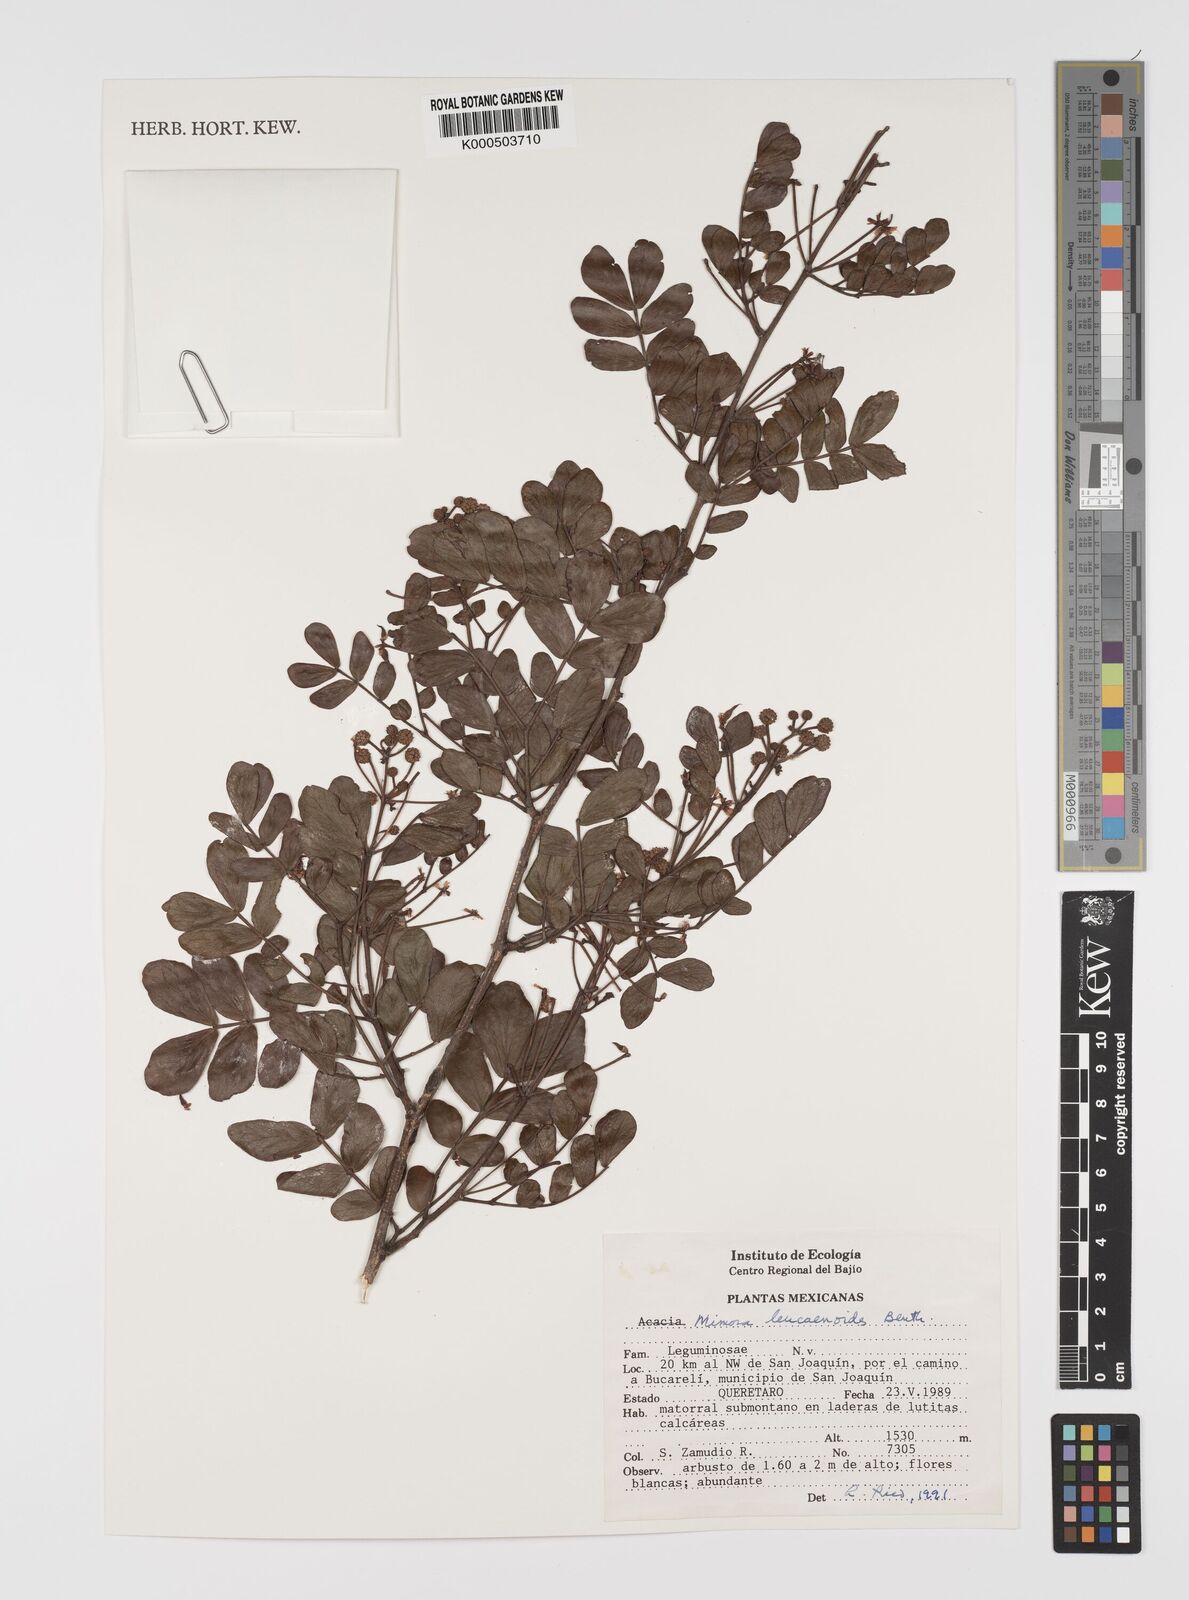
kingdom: Plantae
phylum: Tracheophyta
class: Magnoliopsida
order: Fabales
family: Fabaceae
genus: Mimosa
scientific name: Mimosa leucaenoides
